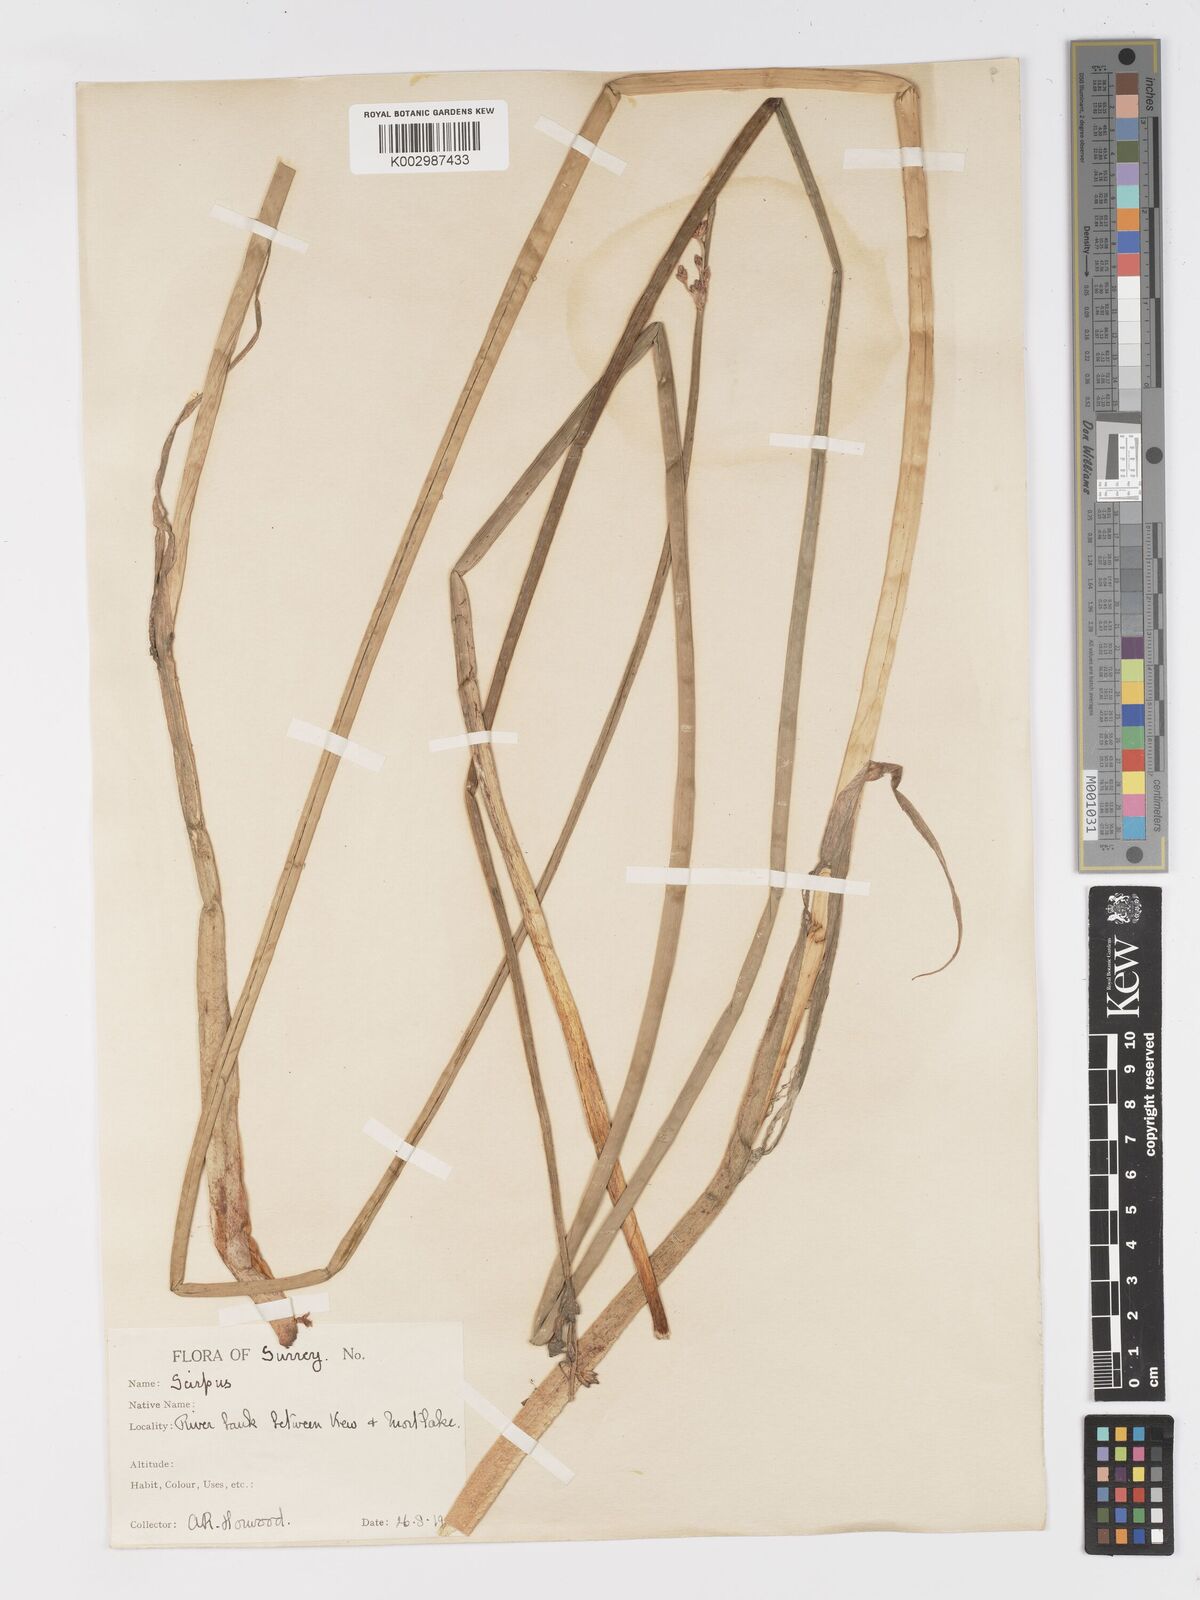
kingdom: Plantae
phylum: Tracheophyta
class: Liliopsida
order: Poales
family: Cyperaceae
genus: Schoenoplectus
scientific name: Schoenoplectus lacustris
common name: Common club-rush
